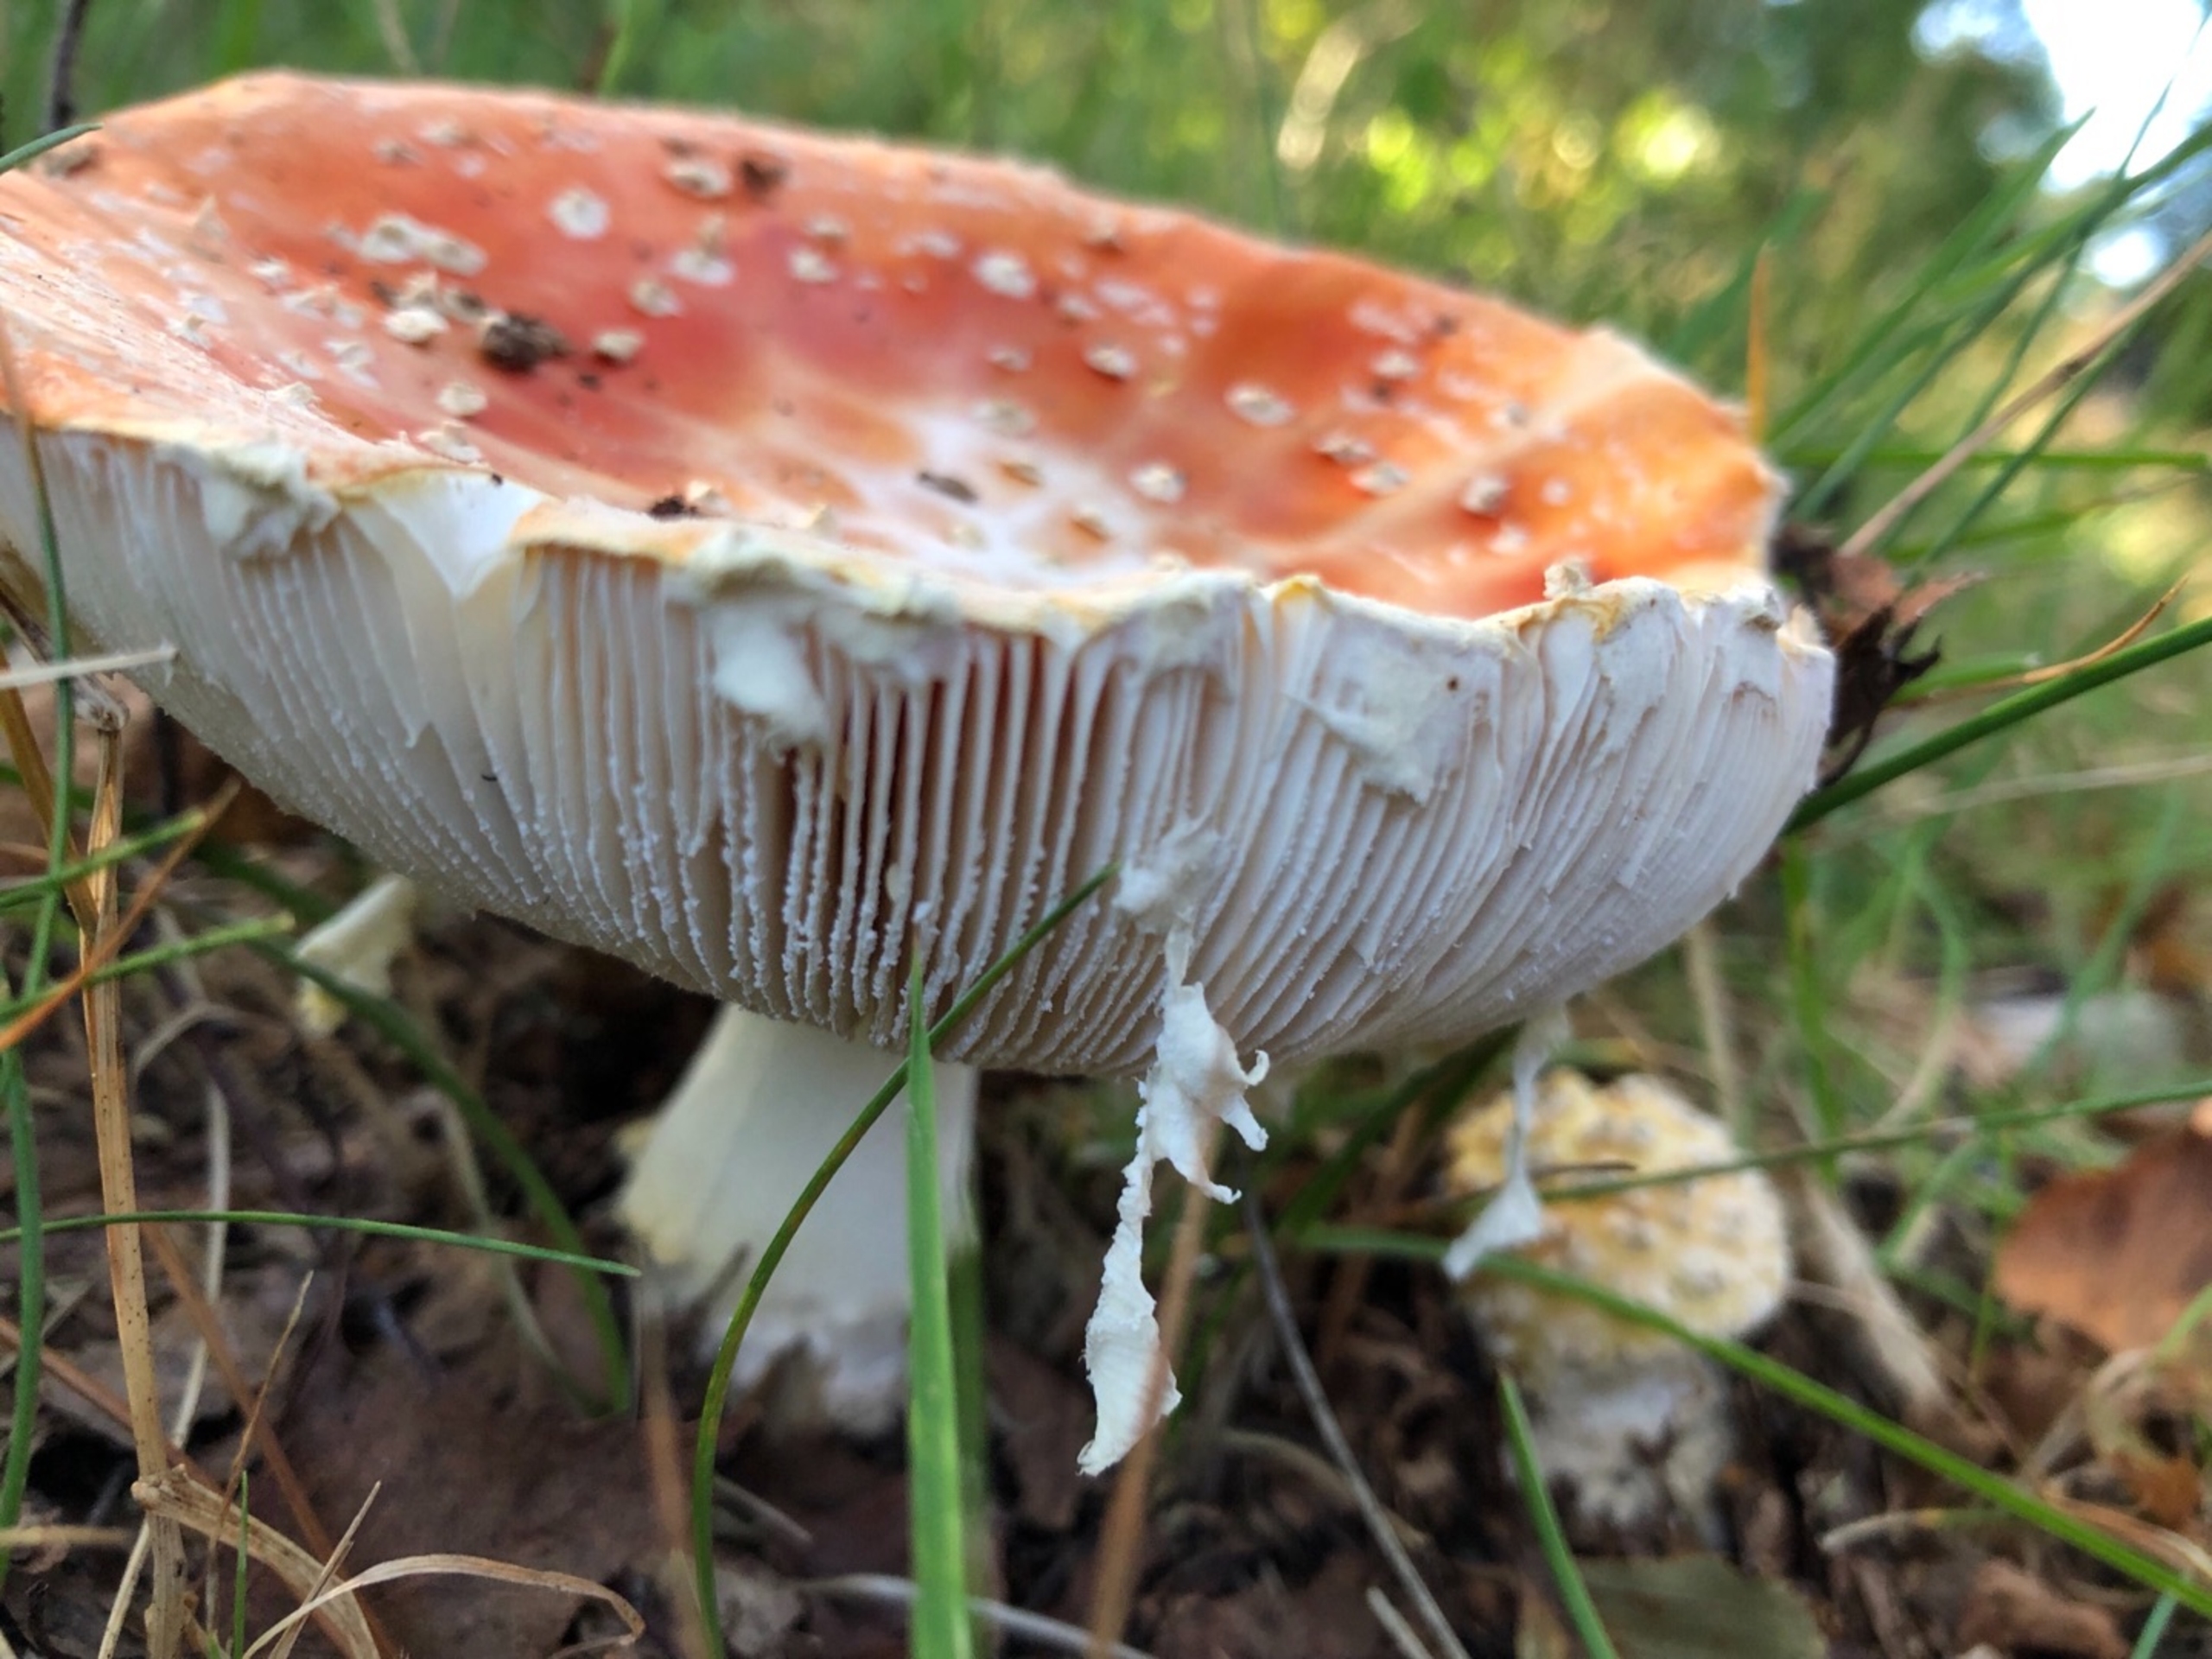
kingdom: Fungi
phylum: Basidiomycota
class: Agaricomycetes
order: Agaricales
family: Amanitaceae
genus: Amanita
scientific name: Amanita muscaria
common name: Rød fluesvamp
